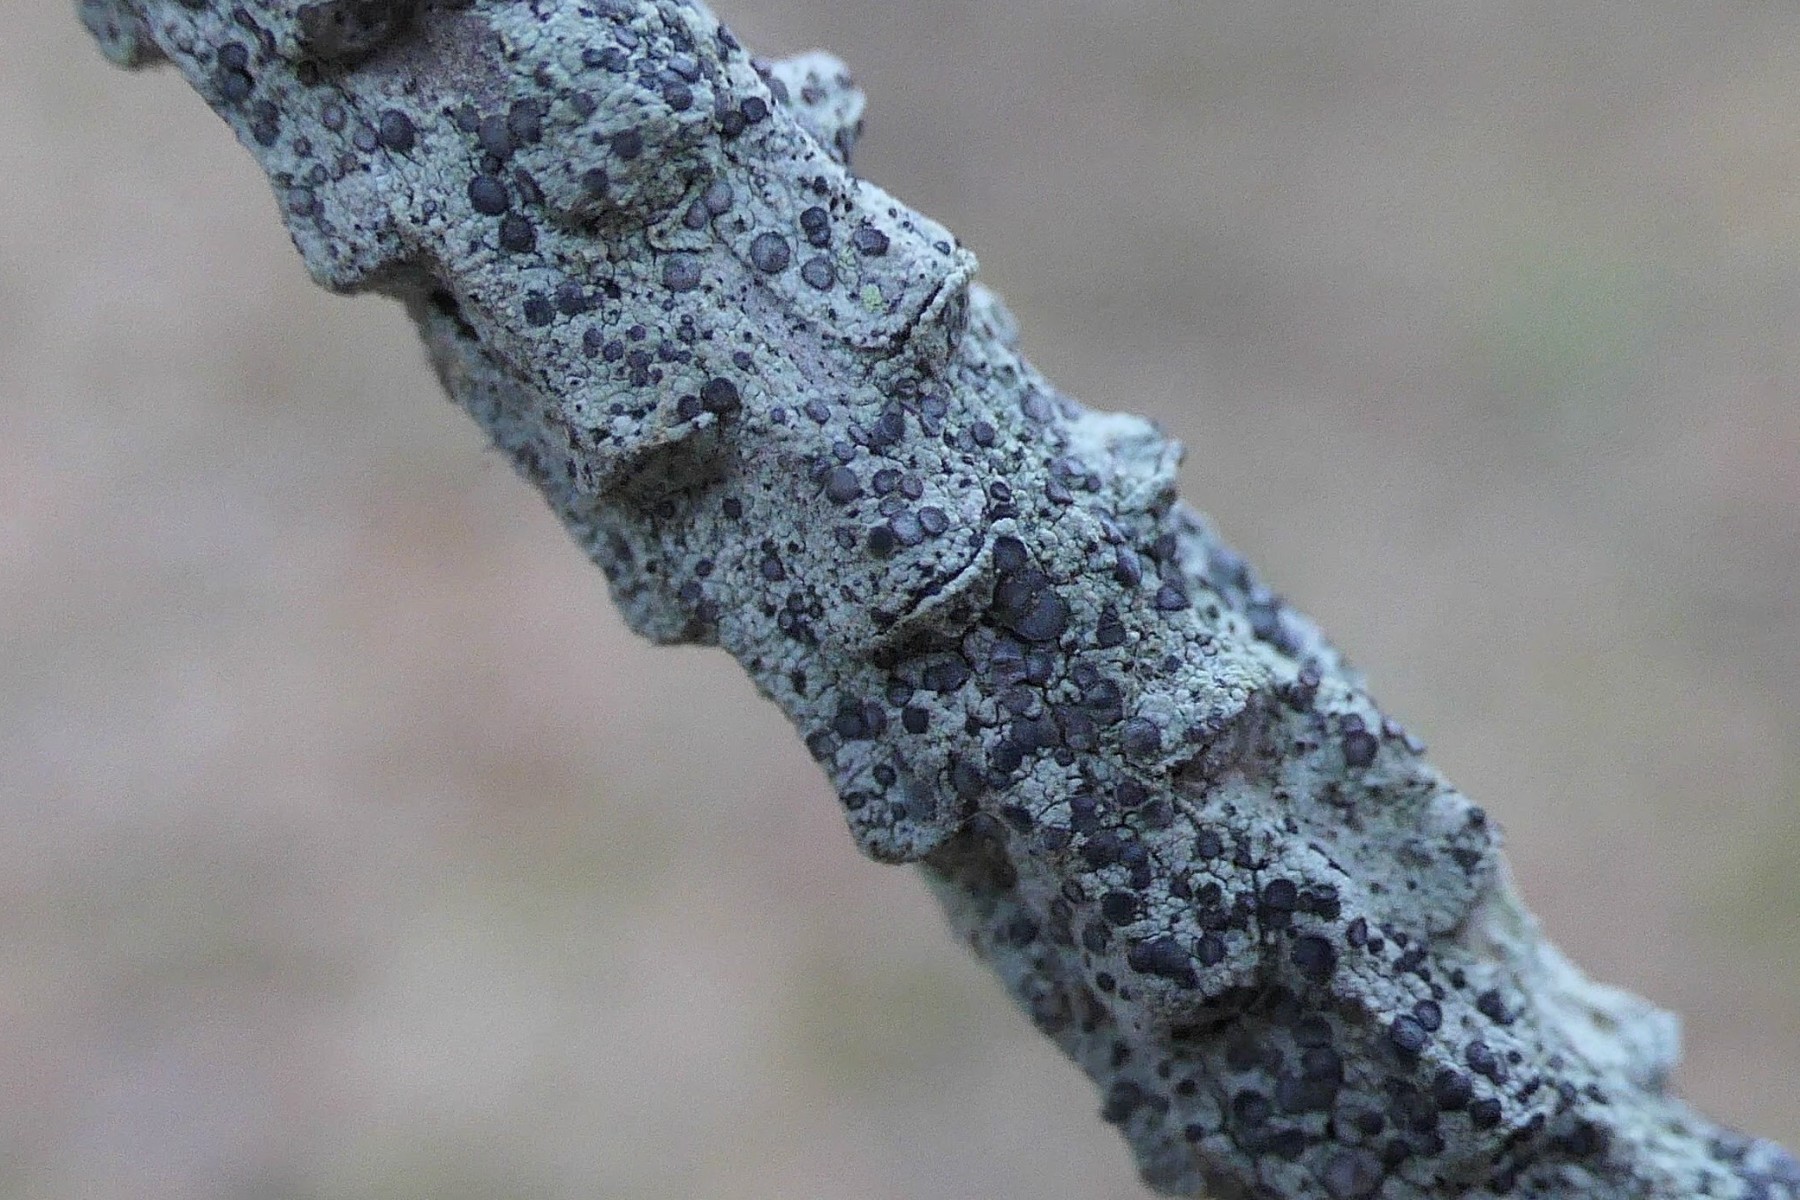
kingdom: Fungi
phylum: Ascomycota
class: Lecanoromycetes
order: Lecanorales
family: Ramalinaceae
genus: Cliostomum
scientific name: Cliostomum griffithii
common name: trefarvet tensporelav
